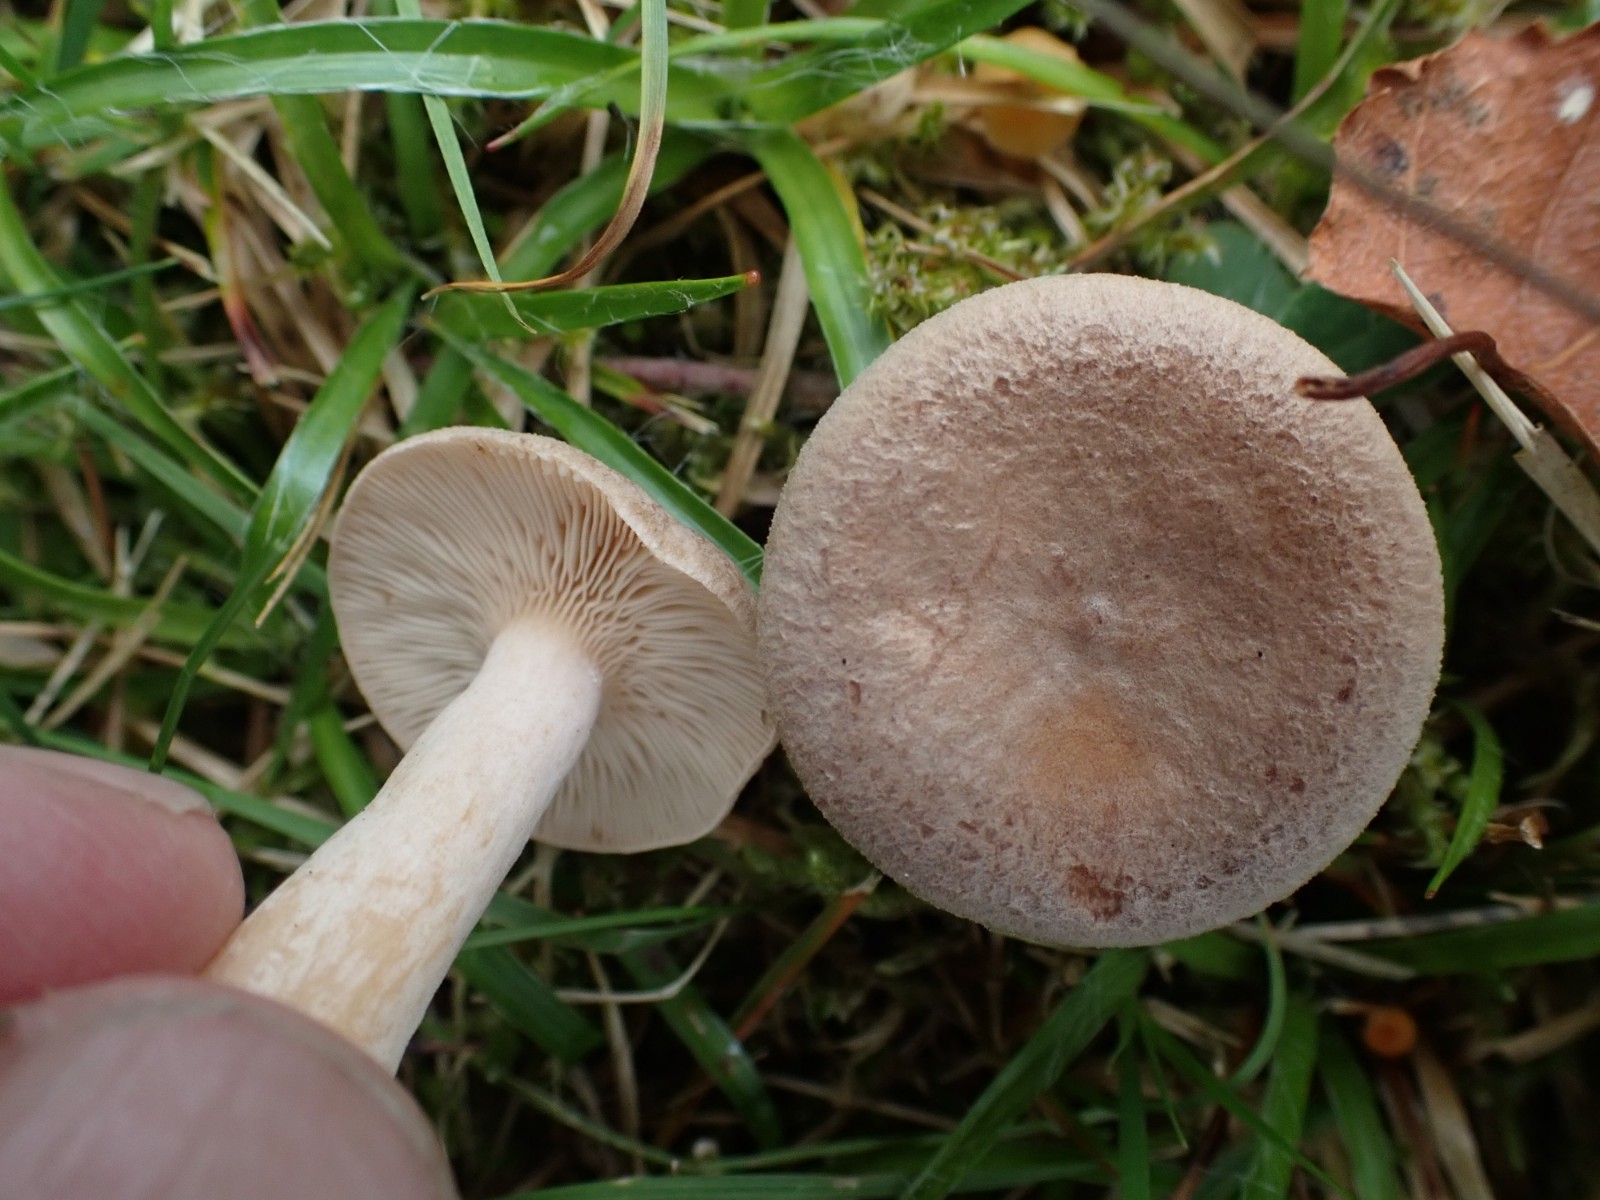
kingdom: Fungi
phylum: Basidiomycota
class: Agaricomycetes
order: Russulales
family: Russulaceae
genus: Lactarius
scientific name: Lactarius glyciosmus
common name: kokos-mælkehat
